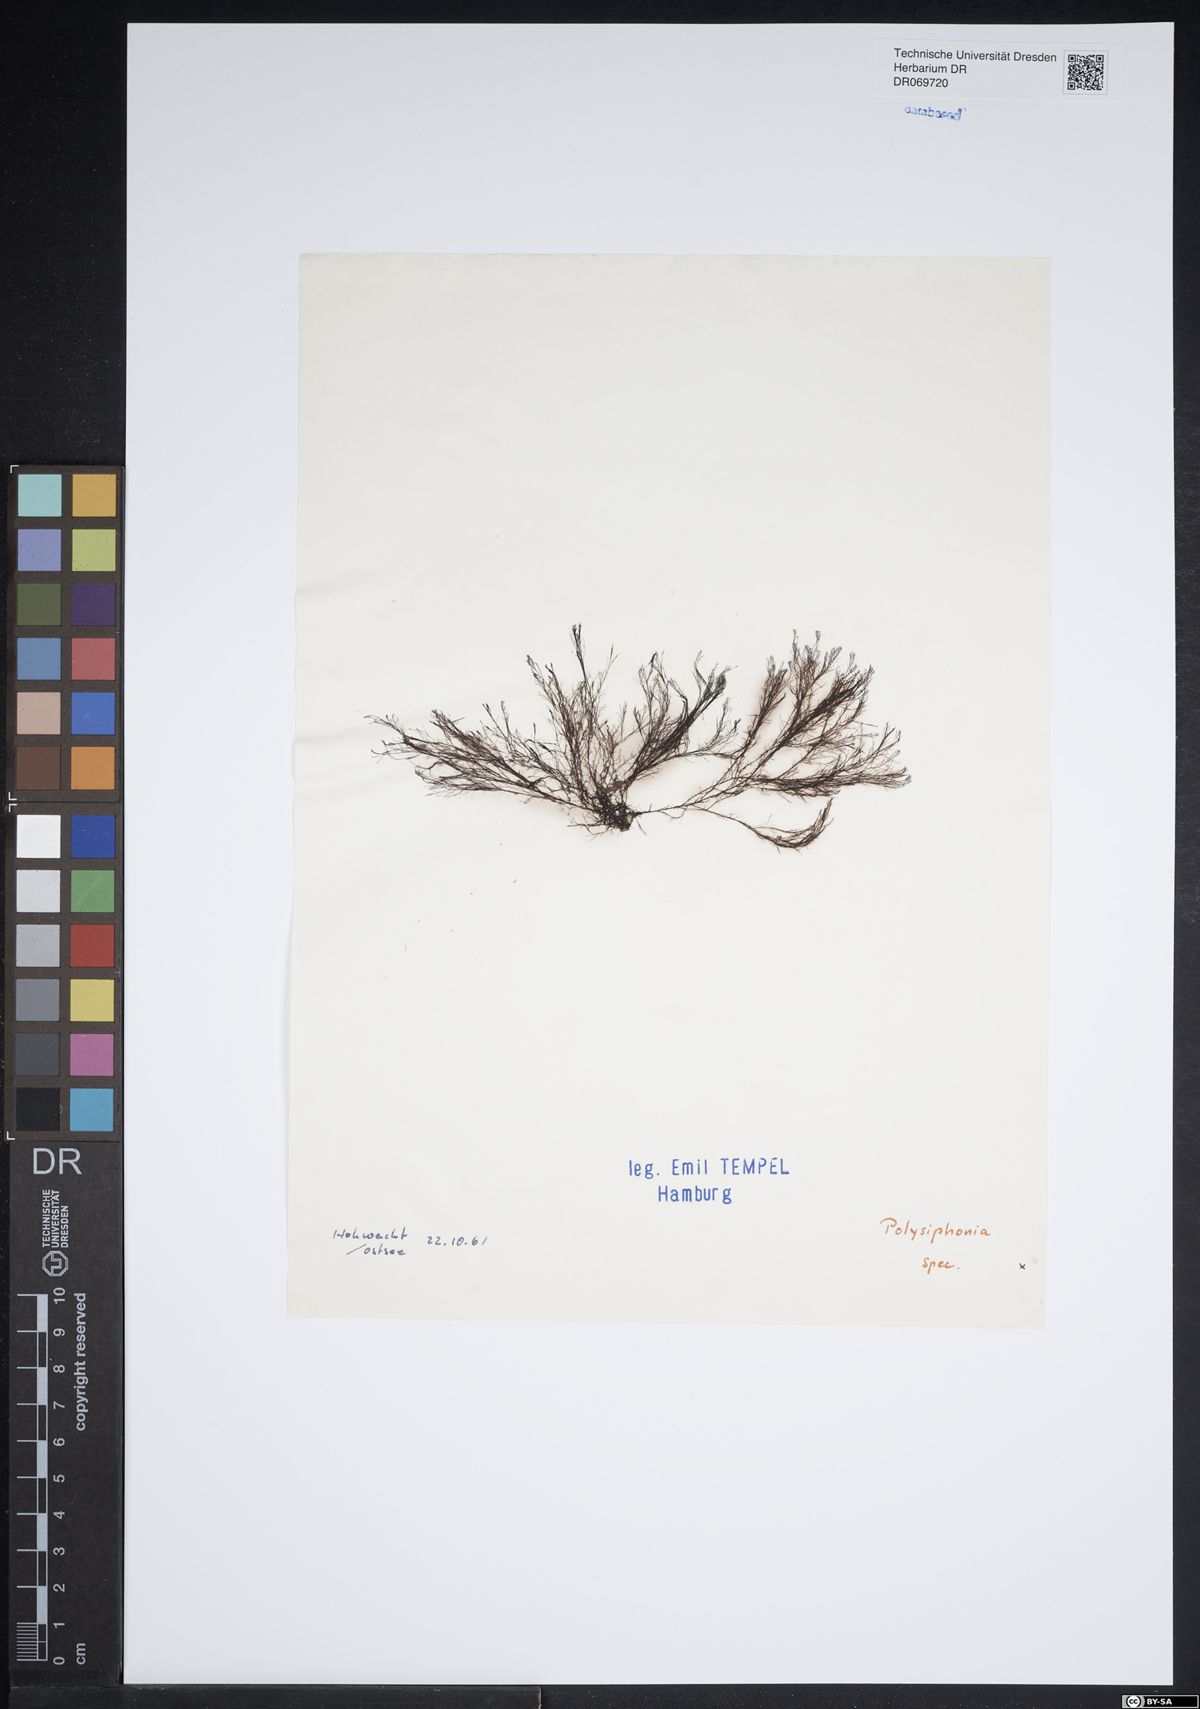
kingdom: Plantae
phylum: Rhodophyta
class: Florideophyceae
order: Ceramiales
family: Rhodomelaceae
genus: Polysiphonia
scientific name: Polysiphonia
